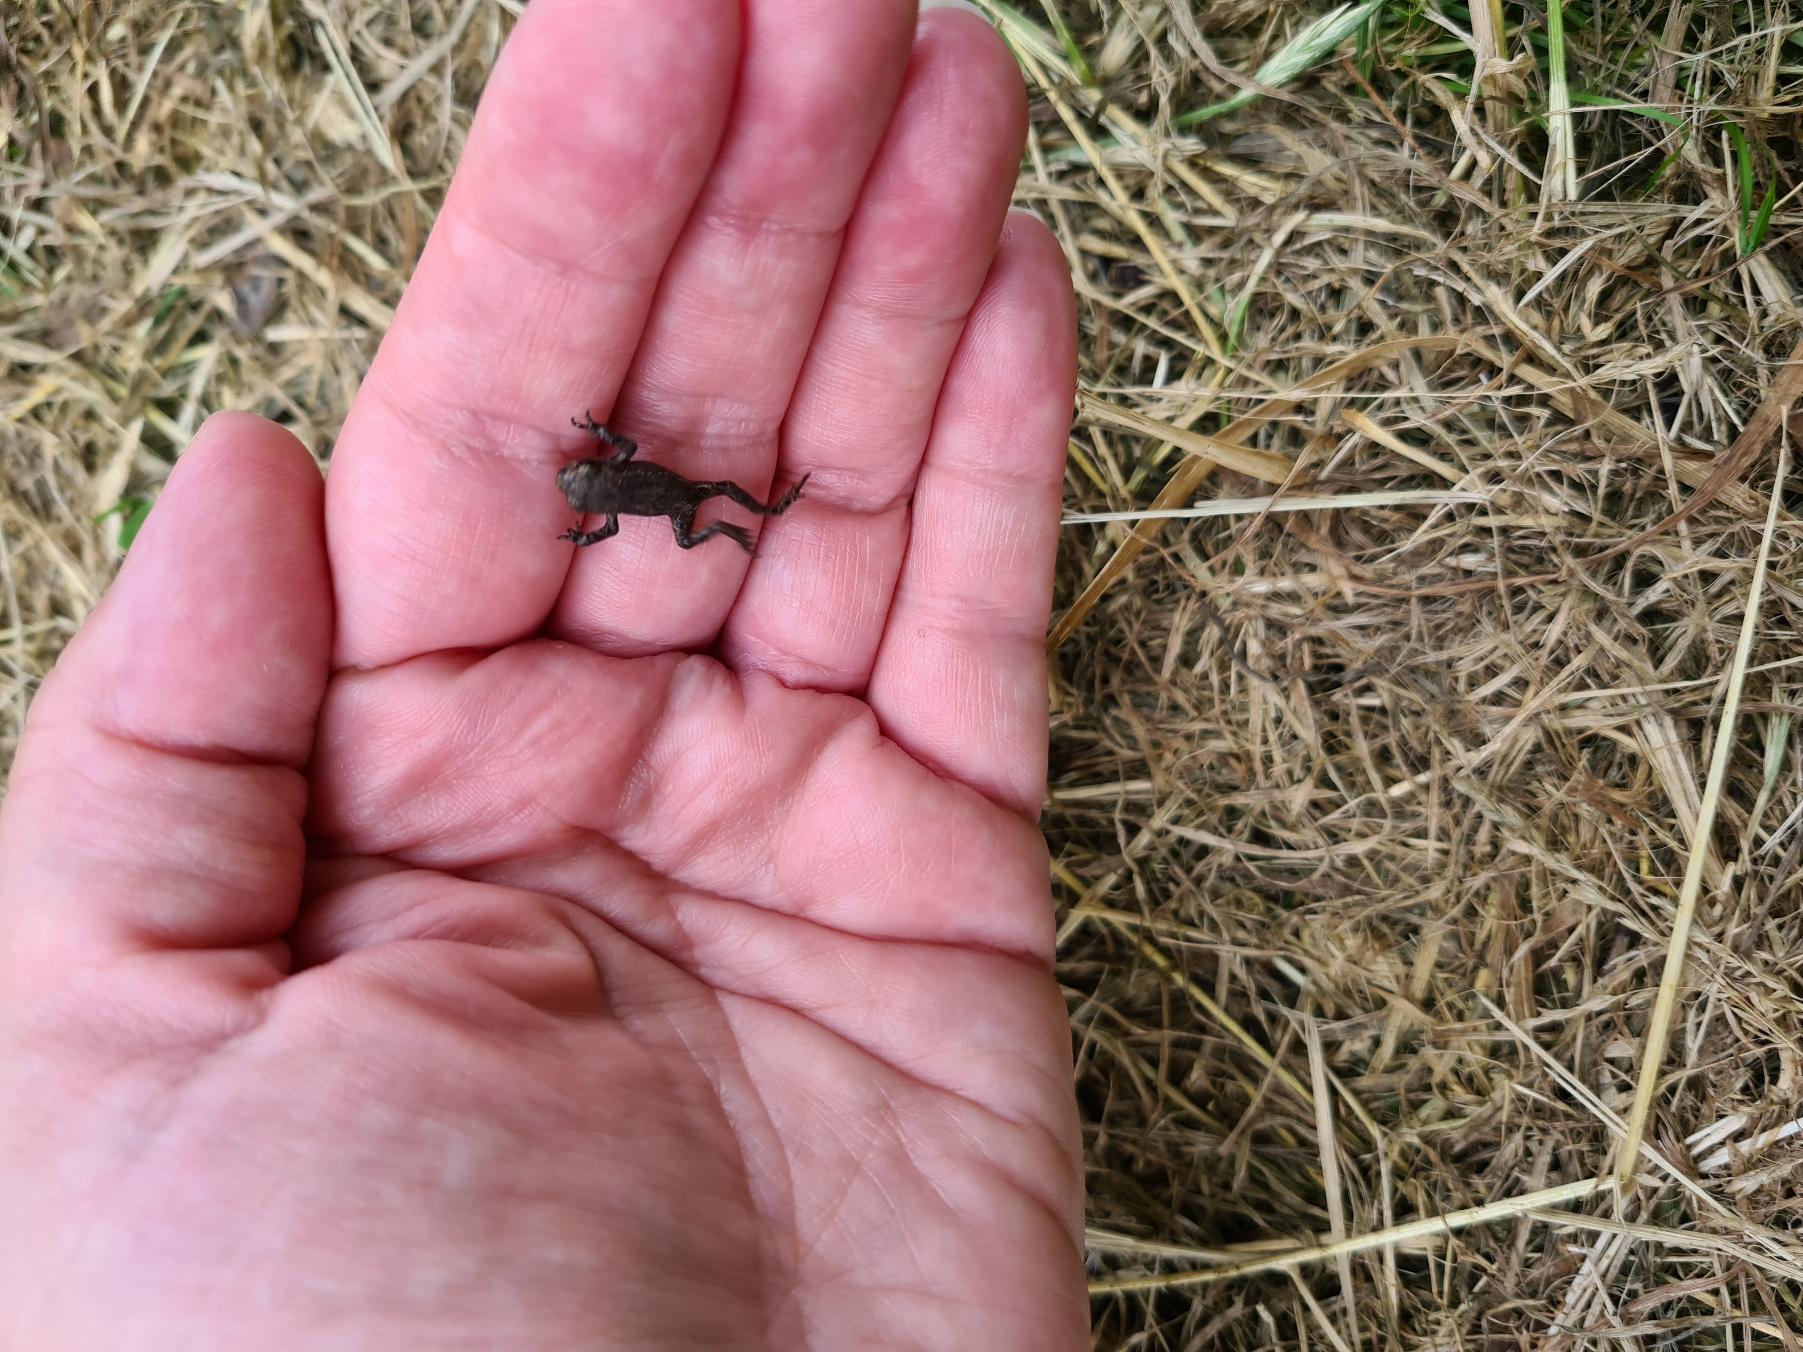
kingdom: Animalia
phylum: Chordata
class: Amphibia
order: Anura
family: Bufonidae
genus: Bufo
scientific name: Bufo bufo
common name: Skrubtudse
